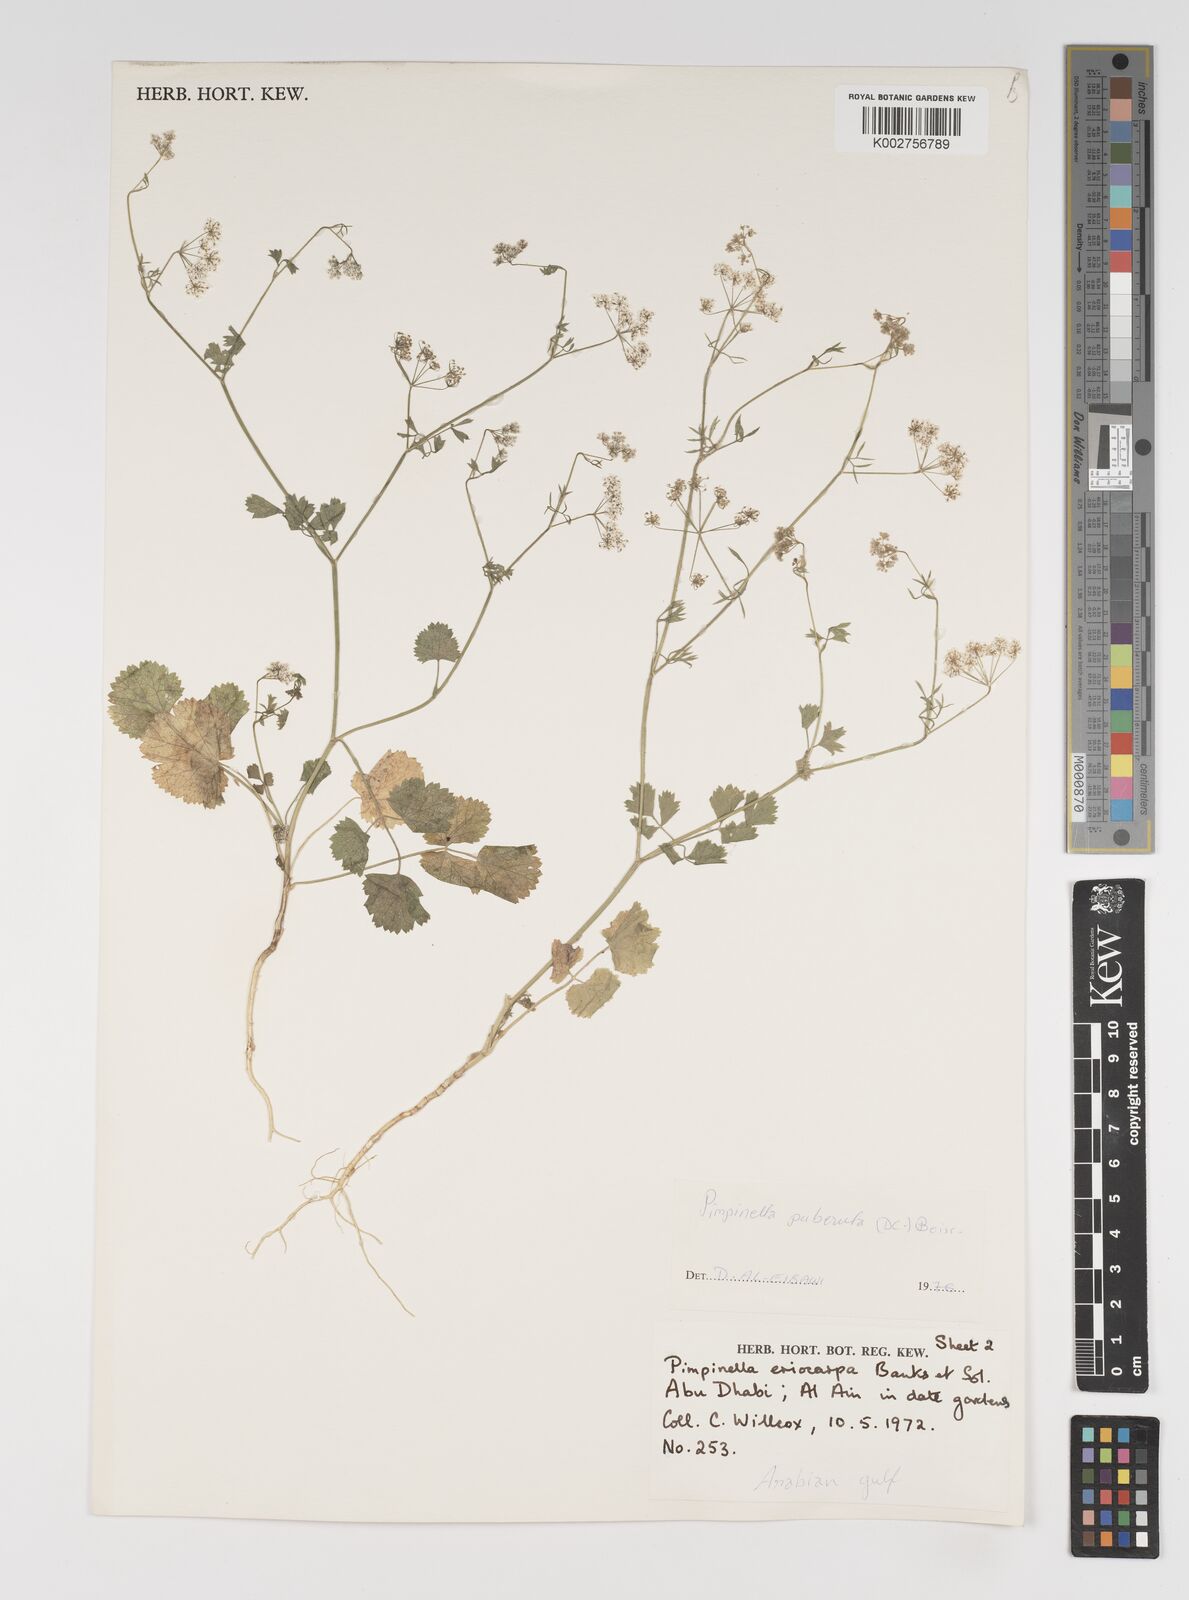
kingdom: Plantae
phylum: Tracheophyta
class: Magnoliopsida
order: Apiales
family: Apiaceae
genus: Pimpinella
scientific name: Pimpinella puberula
